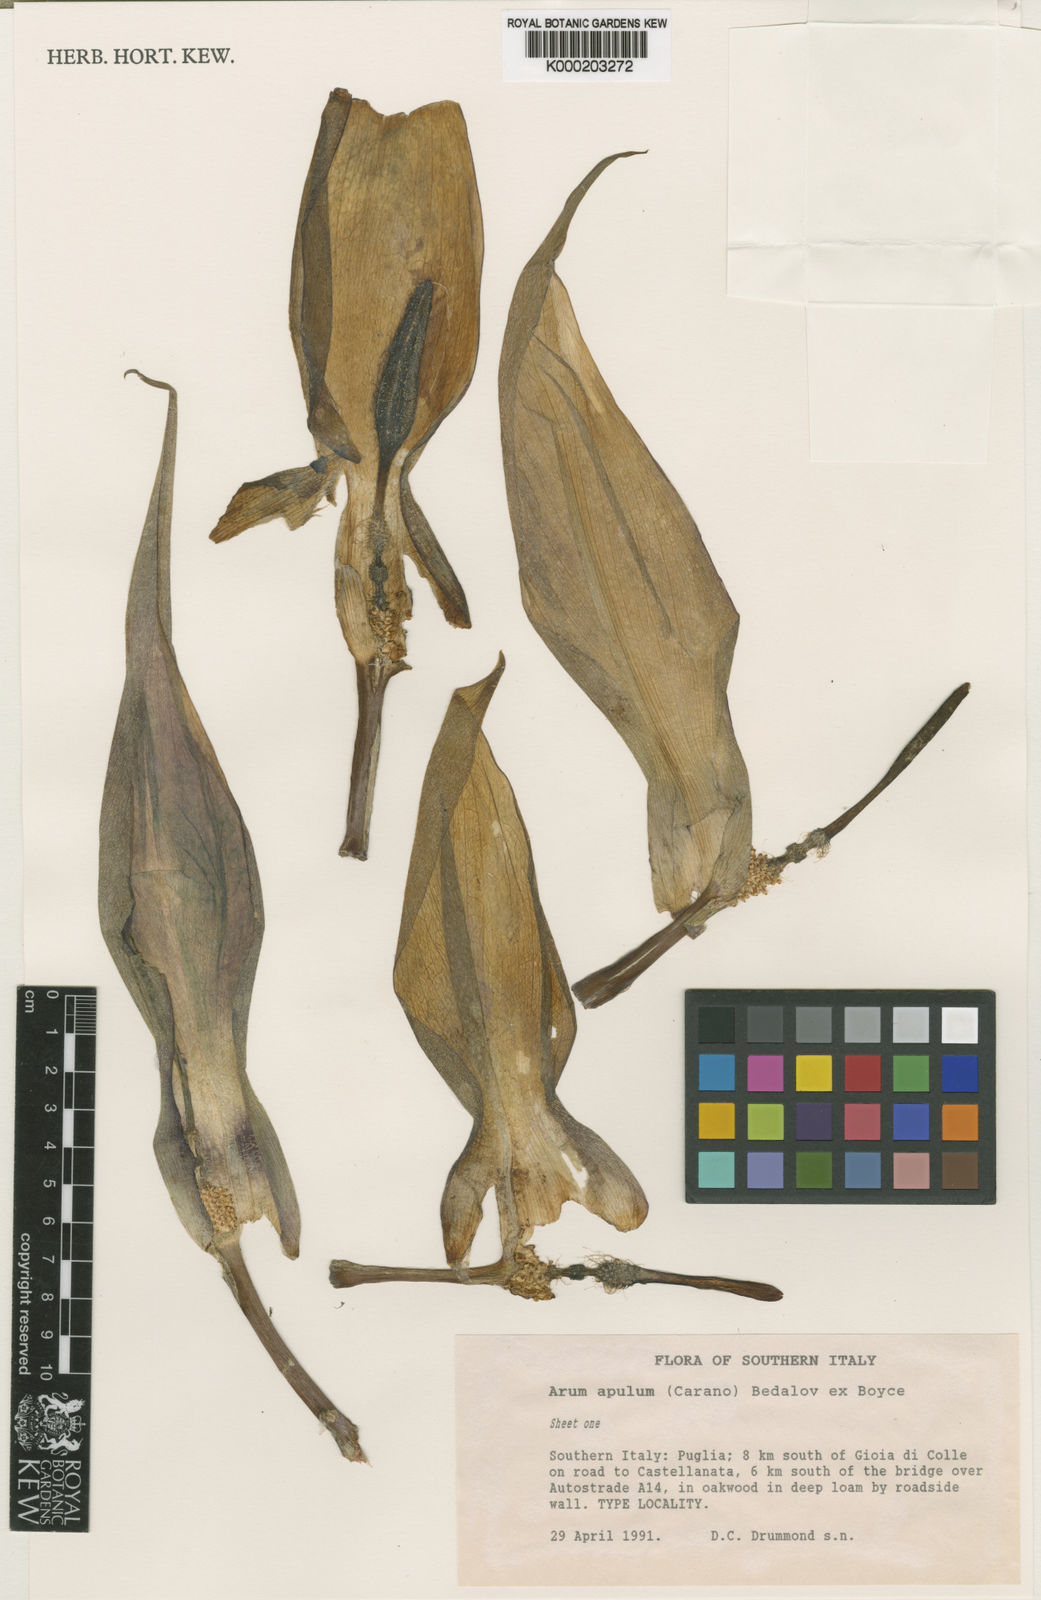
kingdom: Plantae
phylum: Tracheophyta
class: Liliopsida
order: Alismatales
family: Araceae
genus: Arum
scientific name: Arum apulum
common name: Apulian lords and ladies
